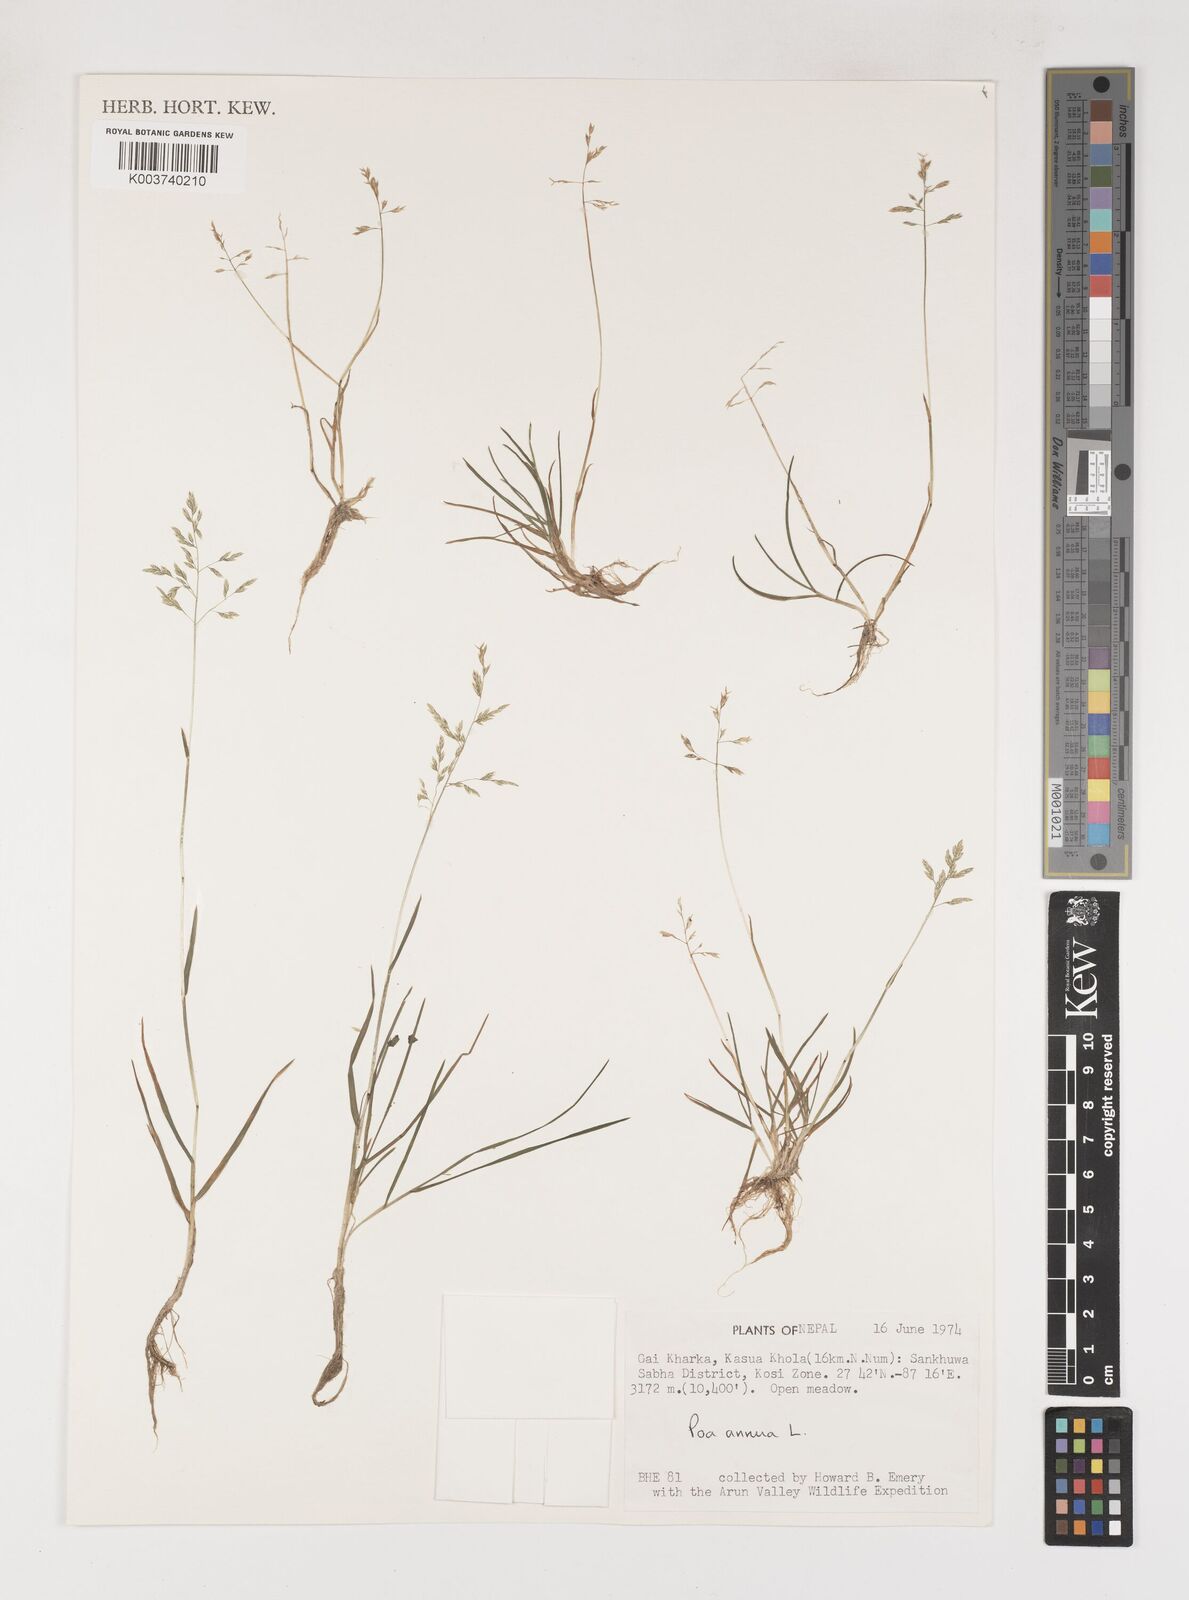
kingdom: Plantae
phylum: Tracheophyta
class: Liliopsida
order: Poales
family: Poaceae
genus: Poa
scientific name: Poa annua
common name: Annual bluegrass
